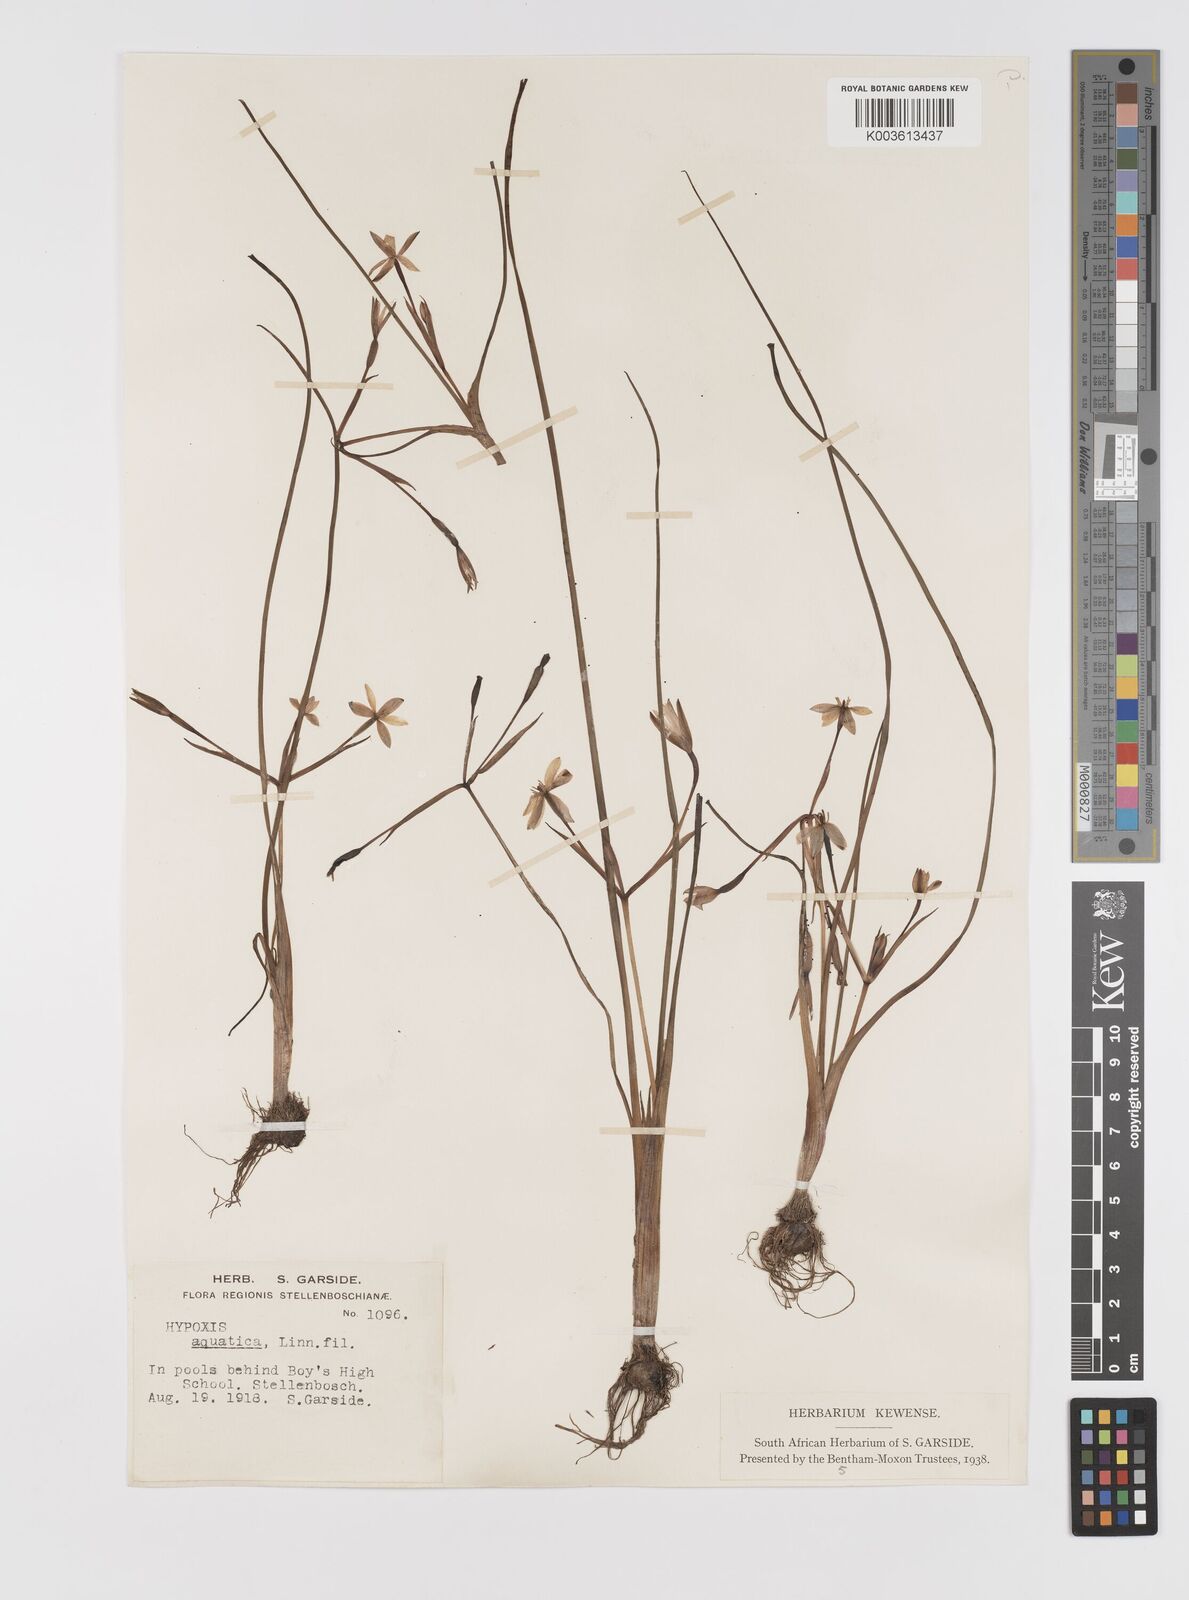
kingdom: Plantae
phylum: Tracheophyta
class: Liliopsida
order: Asparagales
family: Hypoxidaceae
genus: Pauridia
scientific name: Pauridia aquatica
